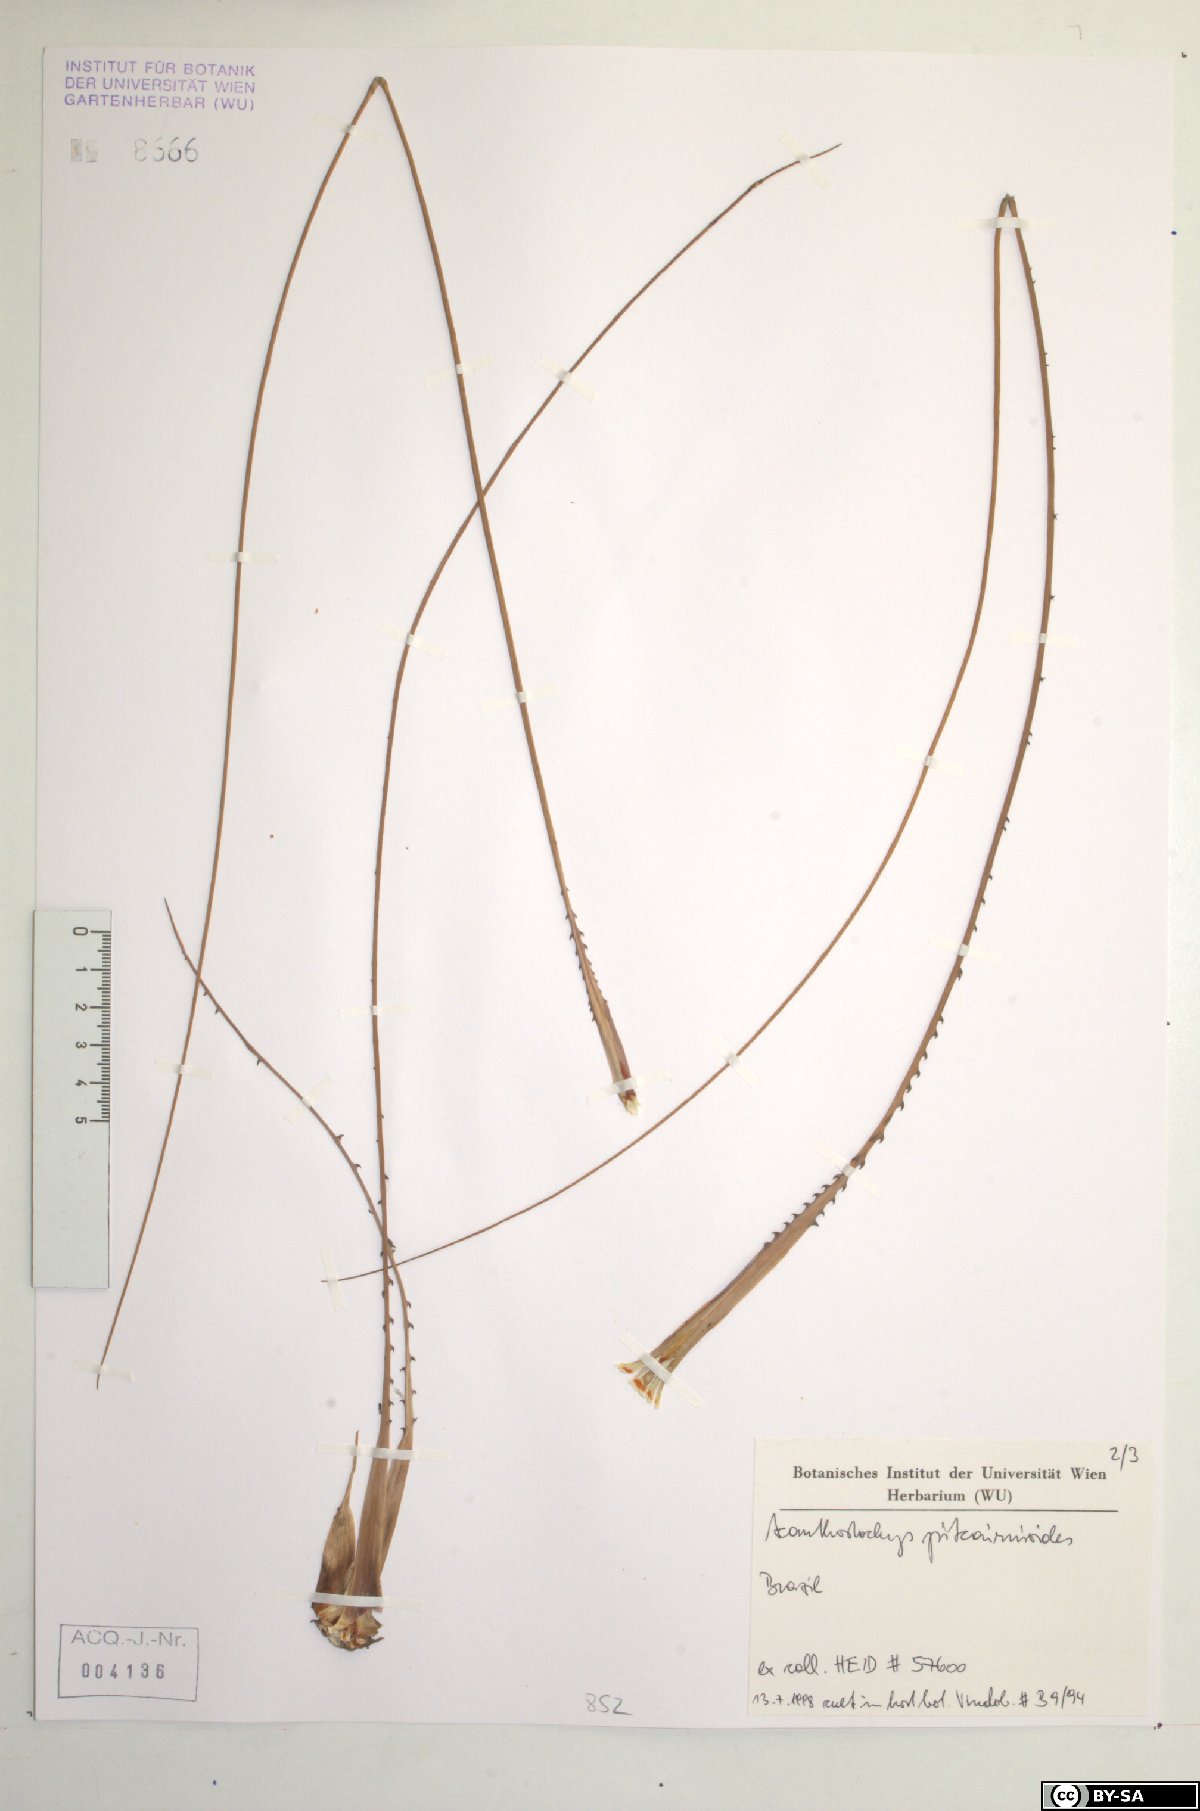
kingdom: Plantae
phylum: Tracheophyta
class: Liliopsida
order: Poales
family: Bromeliaceae
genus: Acanthostachys
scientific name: Acanthostachys pitcairnioides
